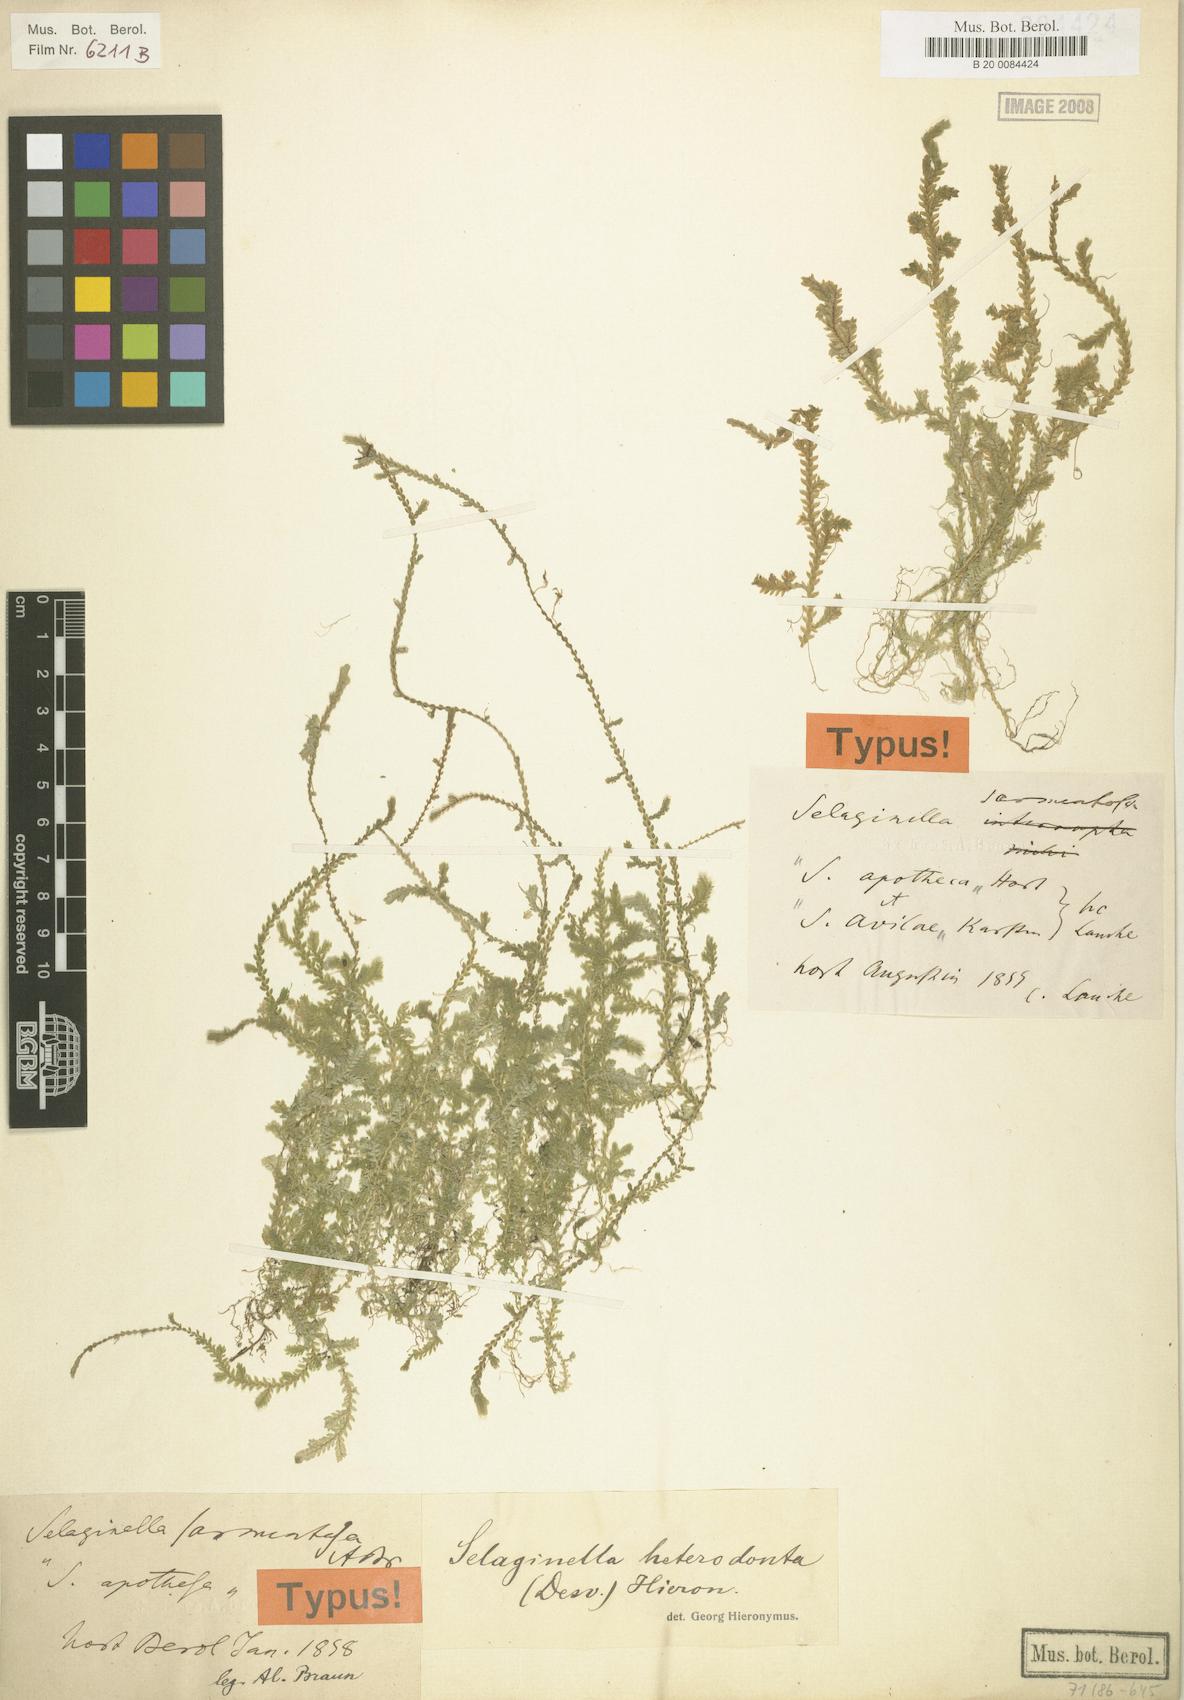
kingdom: Plantae
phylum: Tracheophyta
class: Lycopodiopsida
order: Selaginellales
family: Selaginellaceae
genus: Selaginella
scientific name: Selaginella heterodonta
